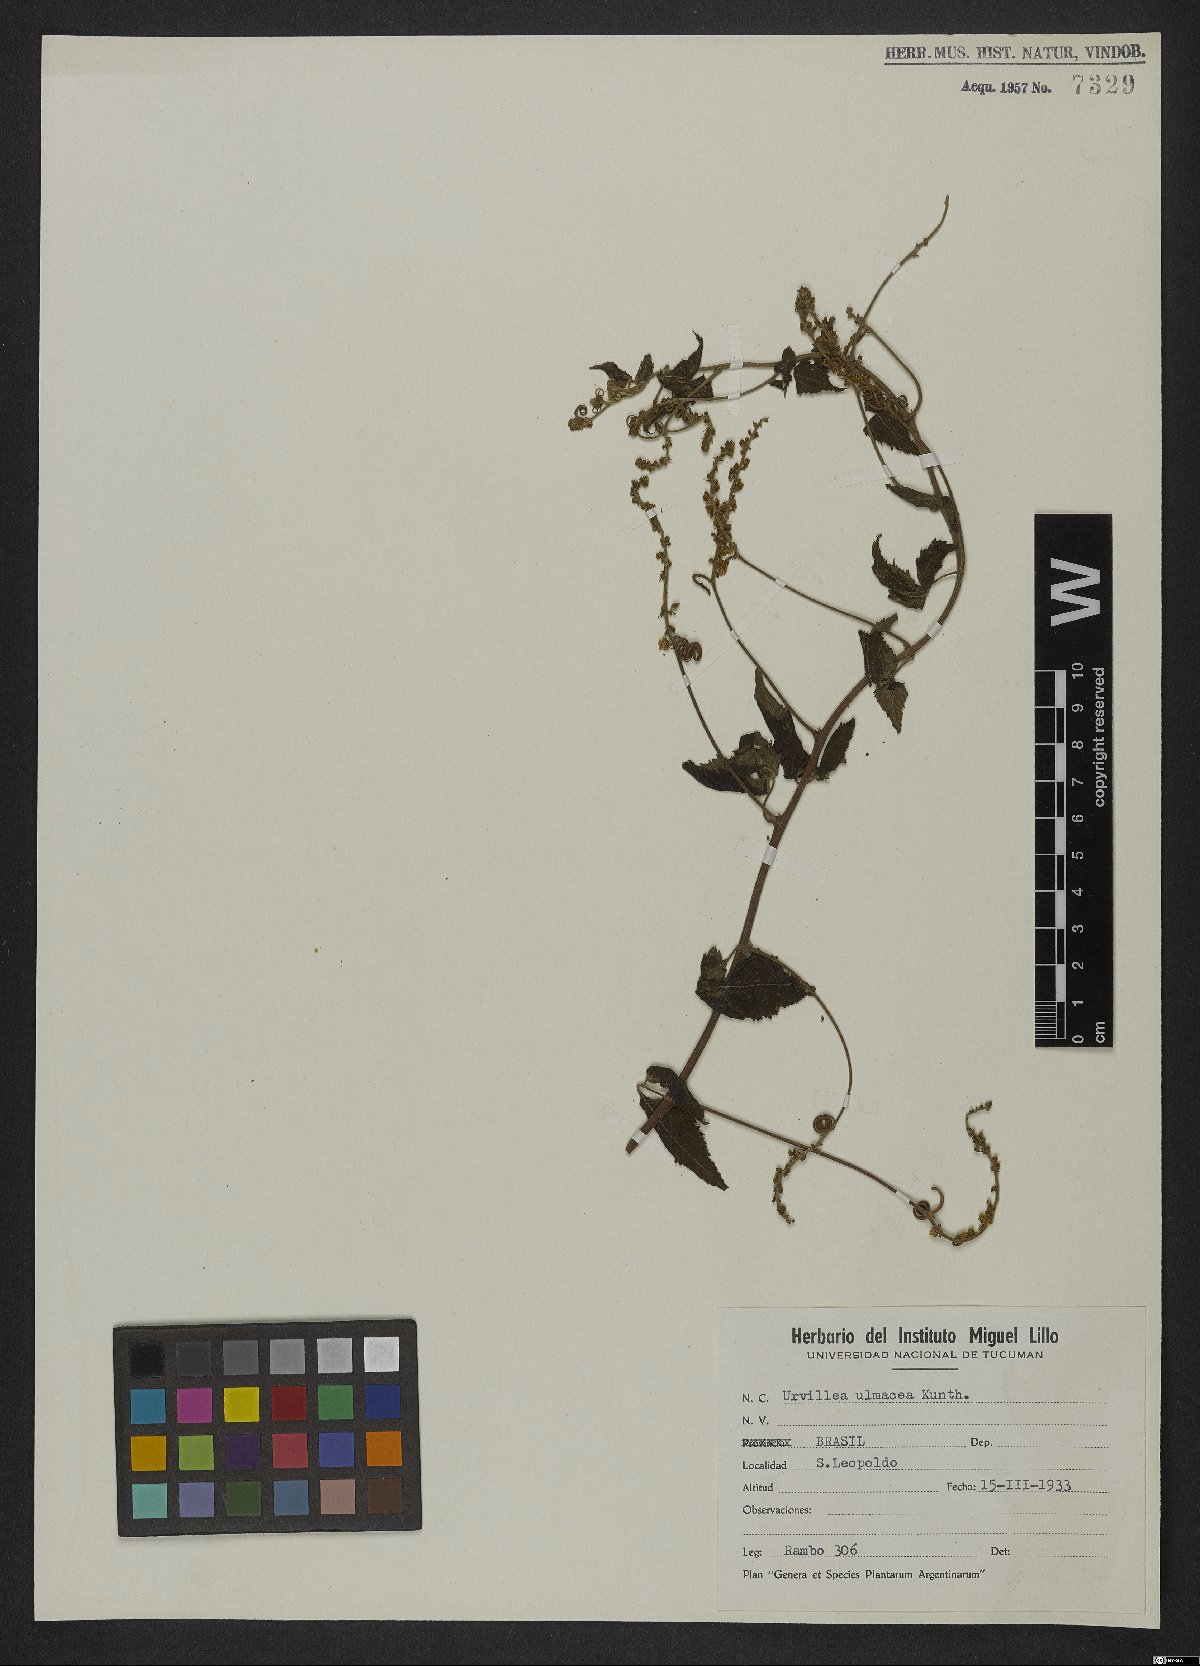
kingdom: Plantae
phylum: Tracheophyta
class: Magnoliopsida
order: Sapindales
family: Sapindaceae
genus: Urvillea
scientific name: Urvillea ulmacea
